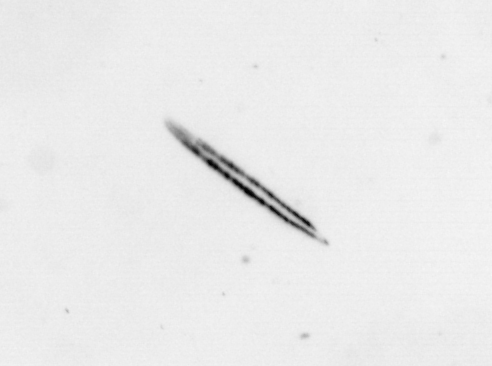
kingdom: Chromista
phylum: Ochrophyta
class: Bacillariophyceae
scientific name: Bacillariophyceae
